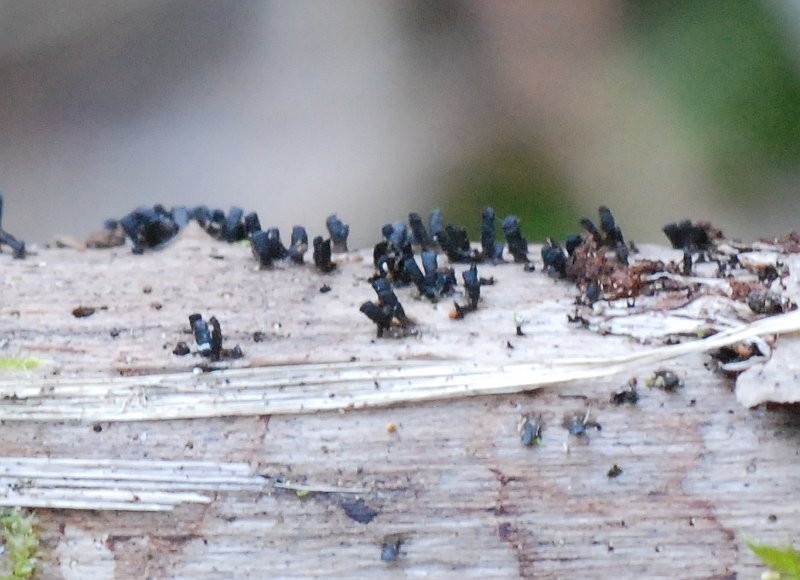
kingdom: Fungi
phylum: Ascomycota
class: Eurotiomycetes
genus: Glyphium
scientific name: Glyphium elatum
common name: kuløkse
